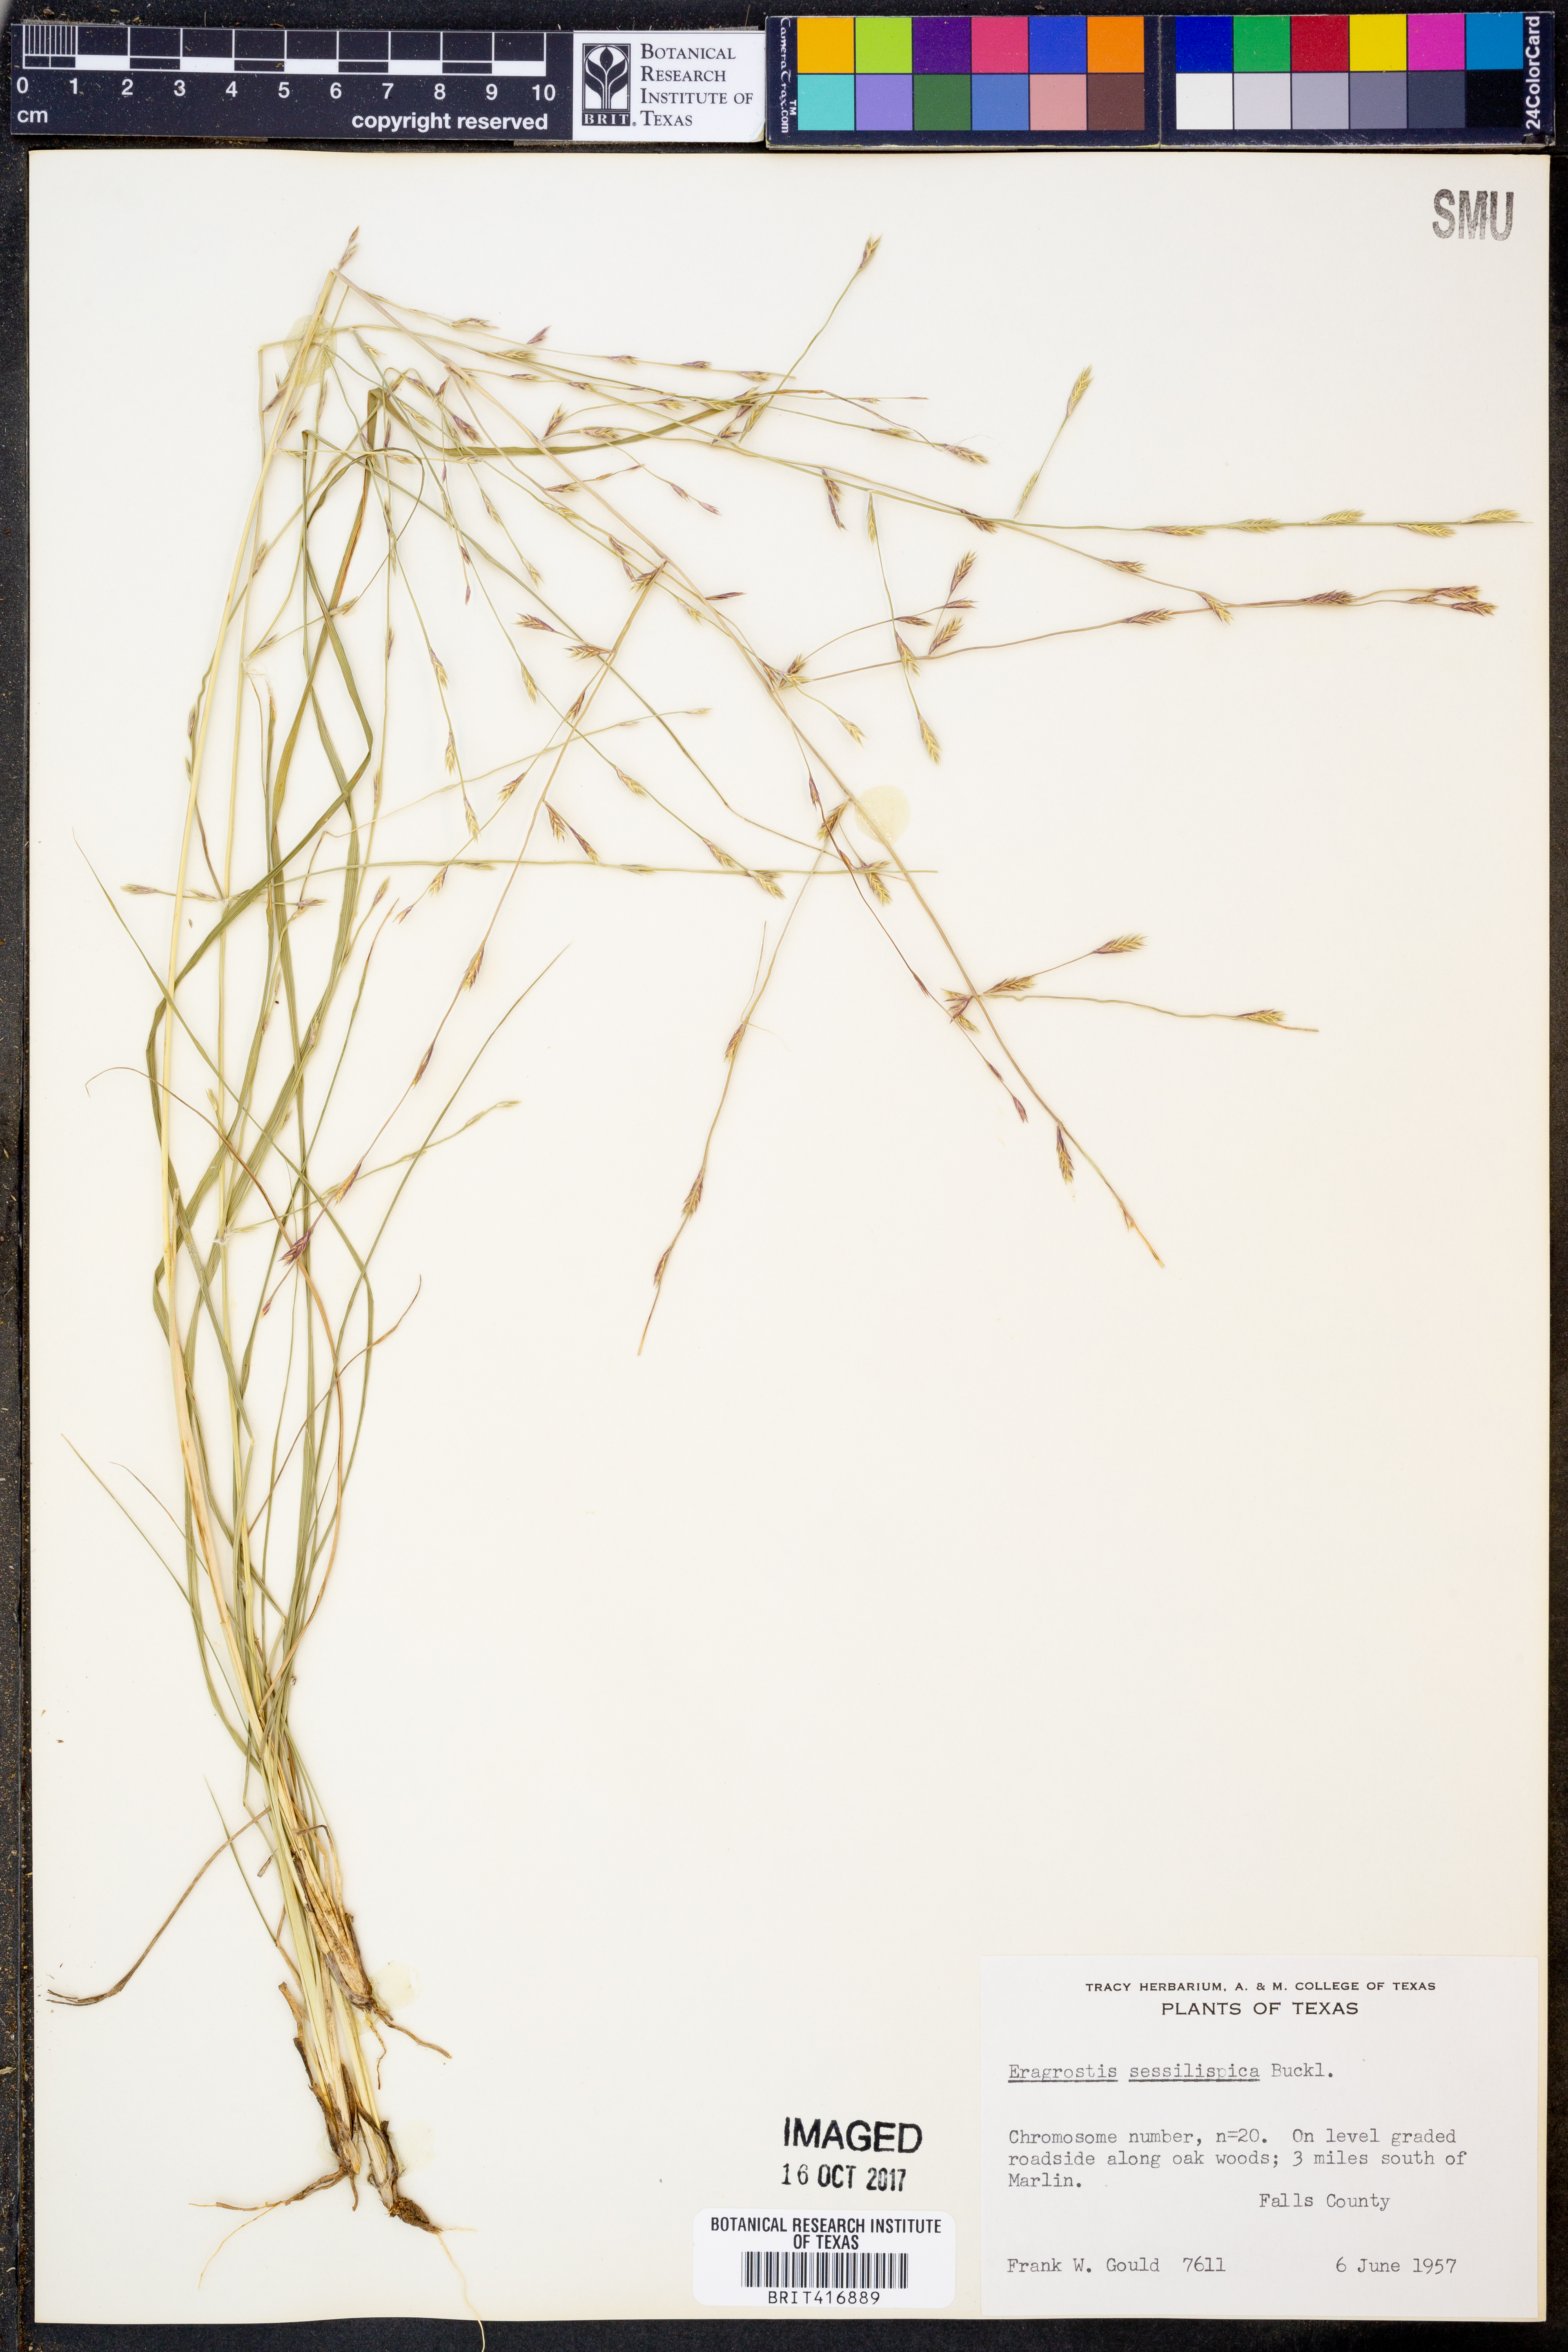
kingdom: Plantae
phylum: Tracheophyta
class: Liliopsida
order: Poales
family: Poaceae
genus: Eragrostis
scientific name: Eragrostis sessilispica
